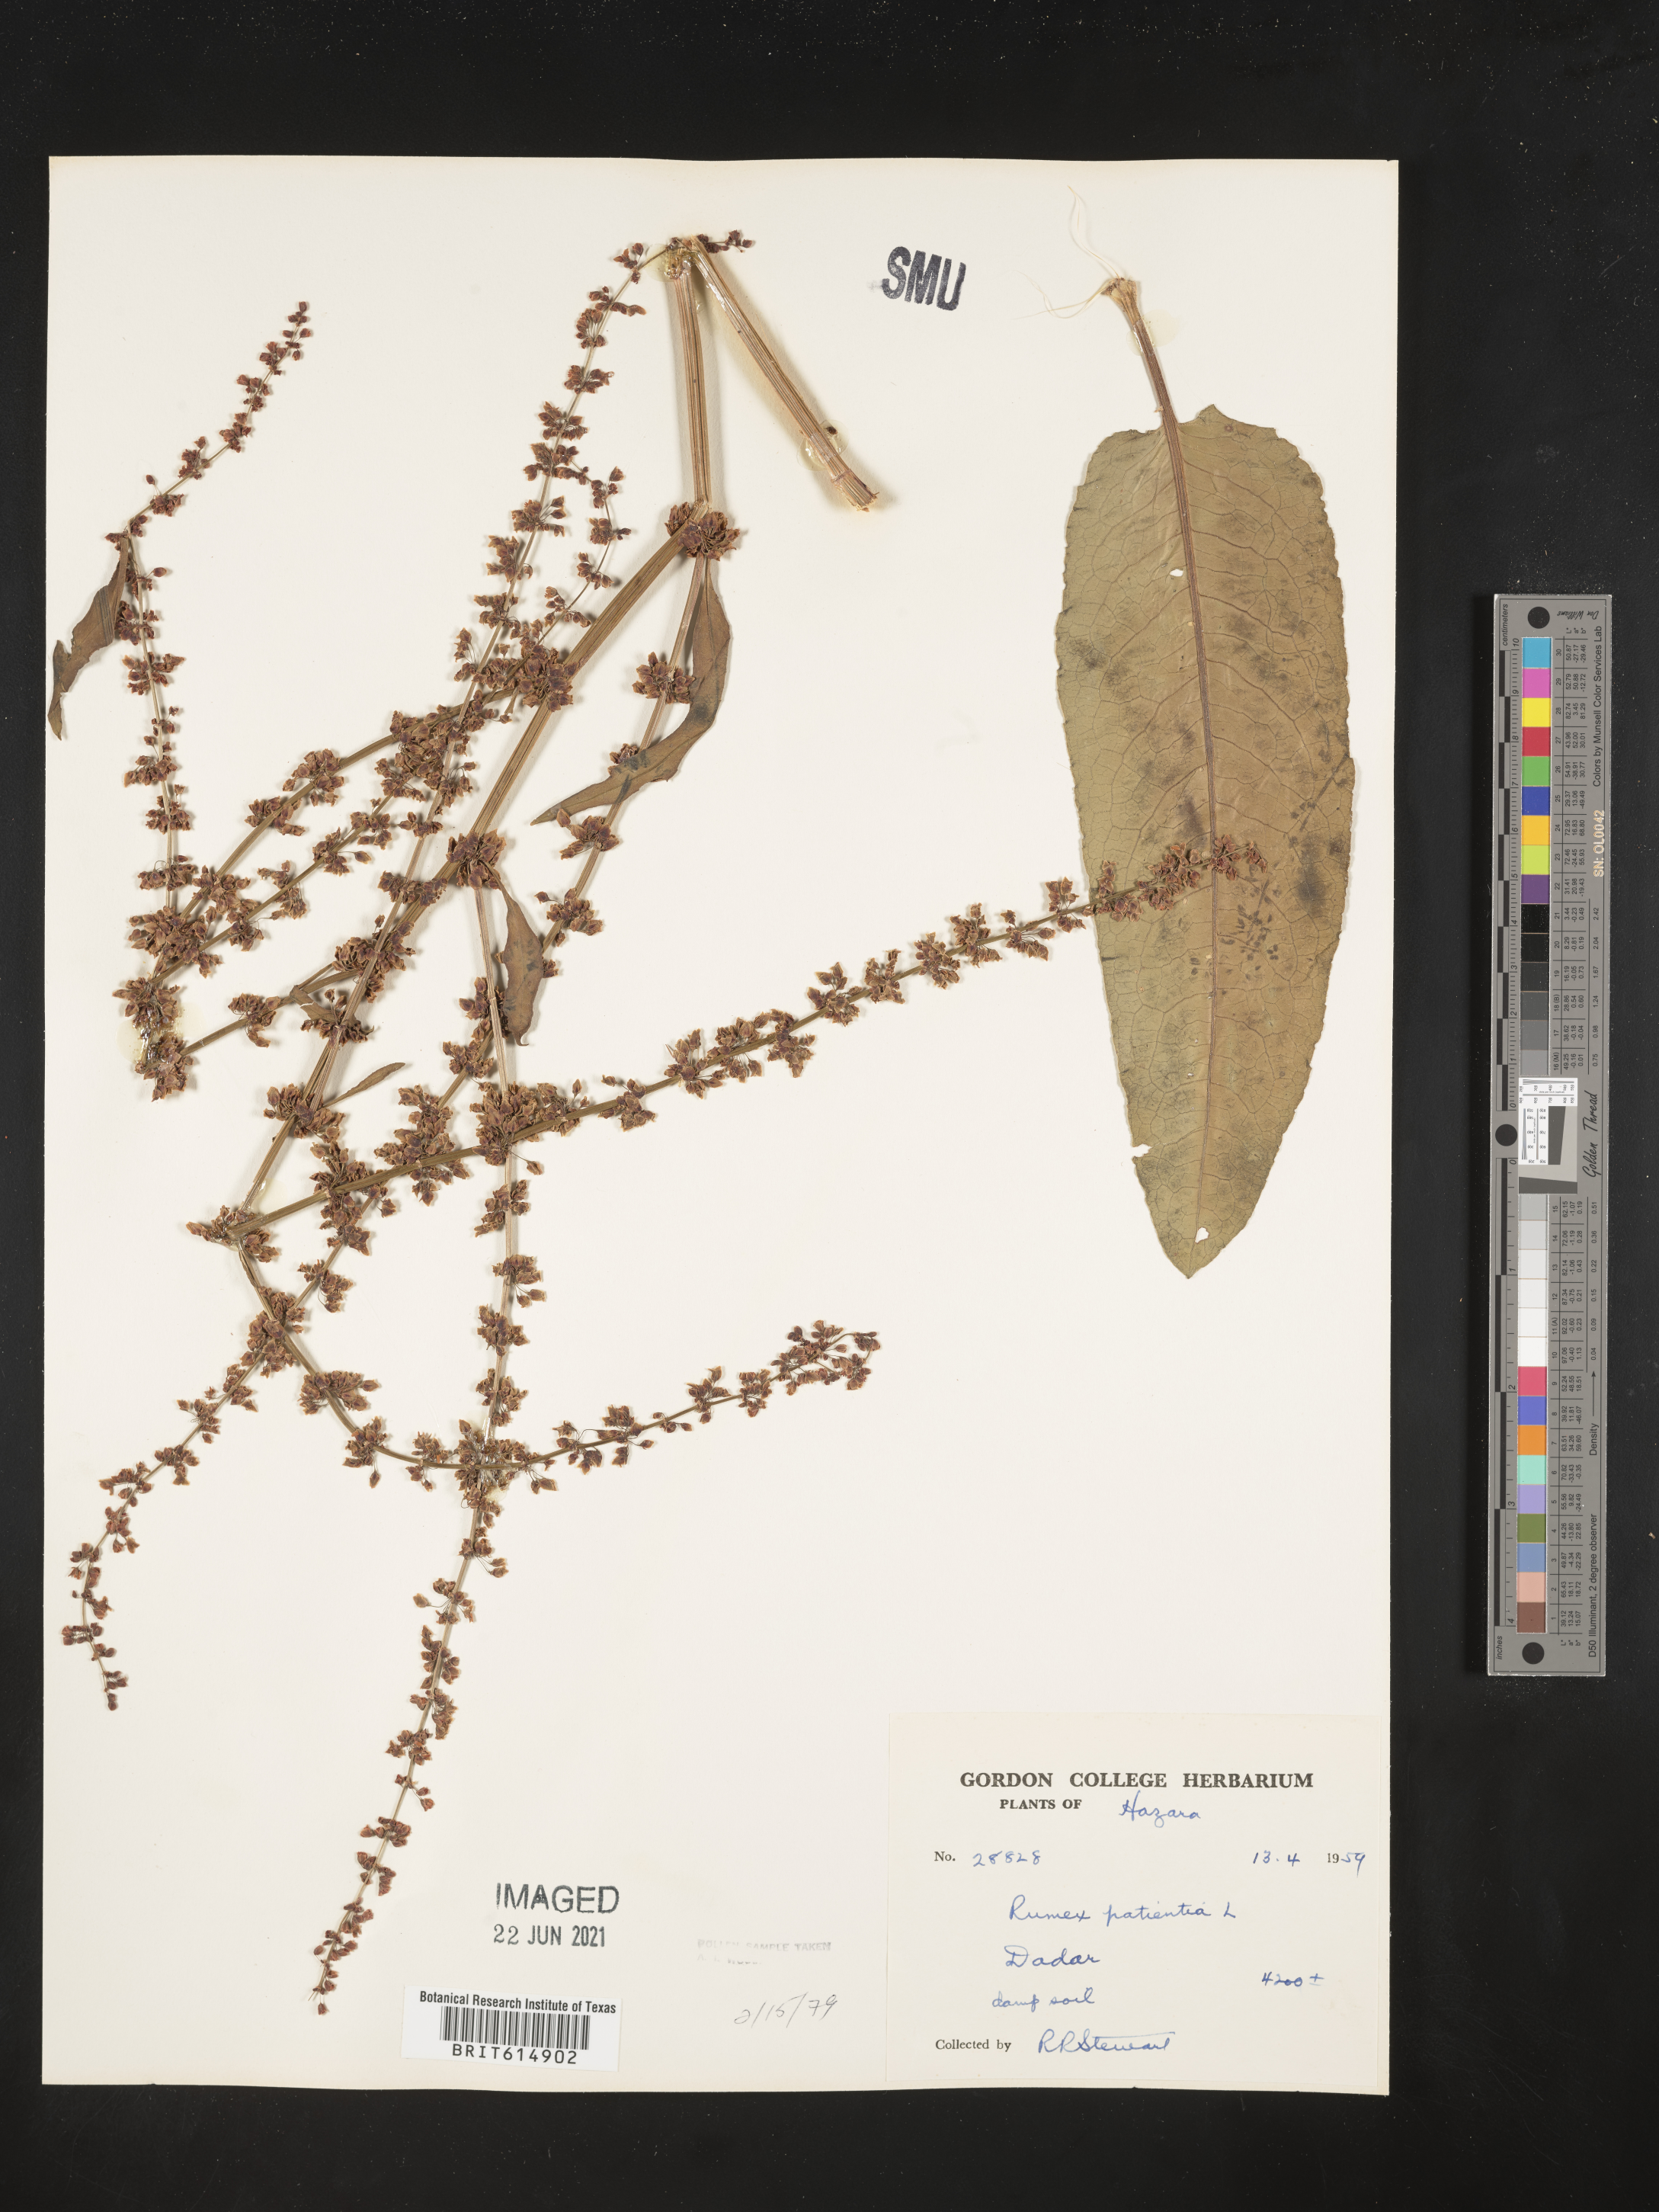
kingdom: Plantae
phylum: Tracheophyta
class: Magnoliopsida
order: Caryophyllales
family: Polygonaceae
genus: Rumex
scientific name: Rumex patientia
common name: Patience dock
